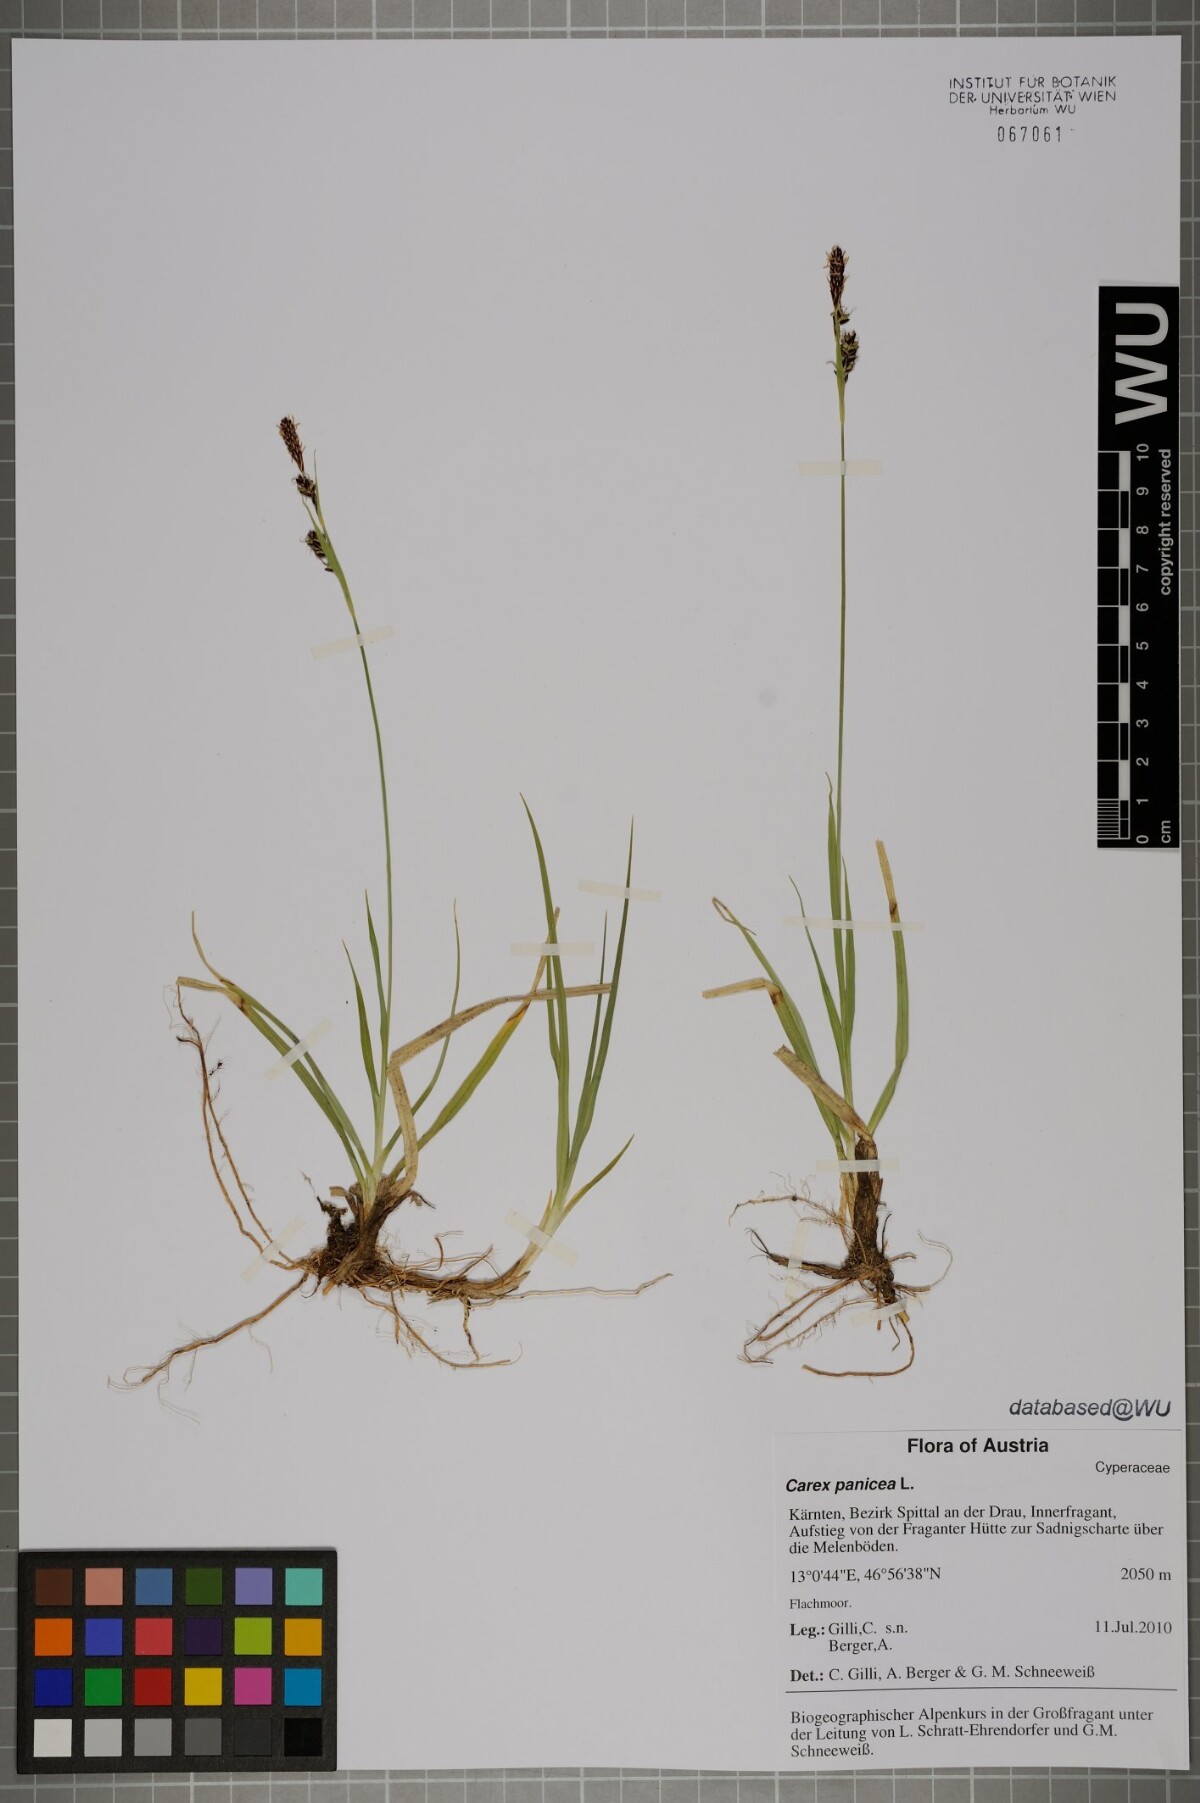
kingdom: Plantae
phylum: Tracheophyta
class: Liliopsida
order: Poales
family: Cyperaceae
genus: Carex
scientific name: Carex panicea
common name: Carnation sedge
